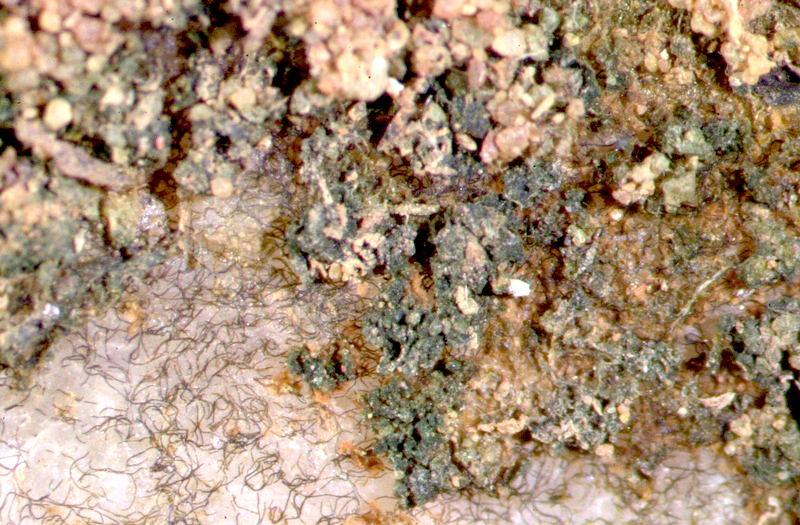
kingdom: Bacteria
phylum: Cyanobacteria
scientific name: Cyanobacteria
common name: Cyanobacteria
